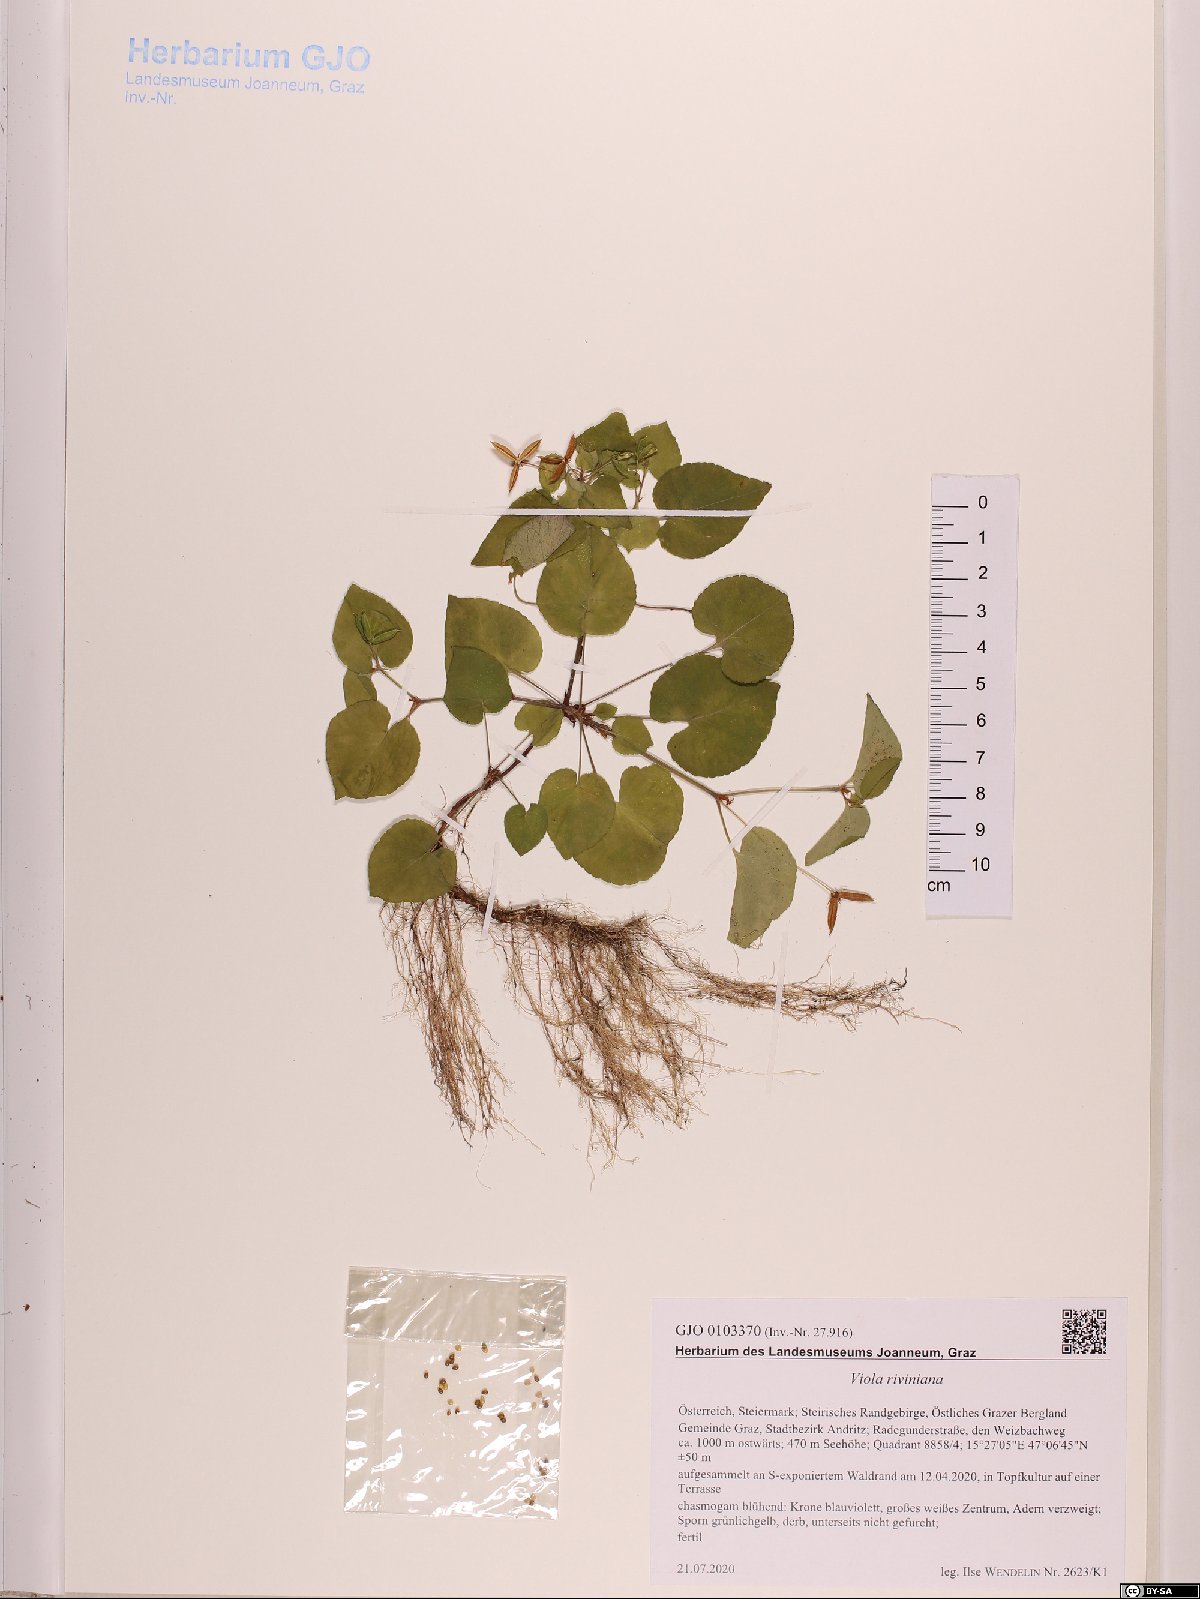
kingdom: Plantae
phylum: Tracheophyta
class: Magnoliopsida
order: Malpighiales
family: Violaceae
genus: Viola
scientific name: Viola riviniana
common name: Common dog-violet
